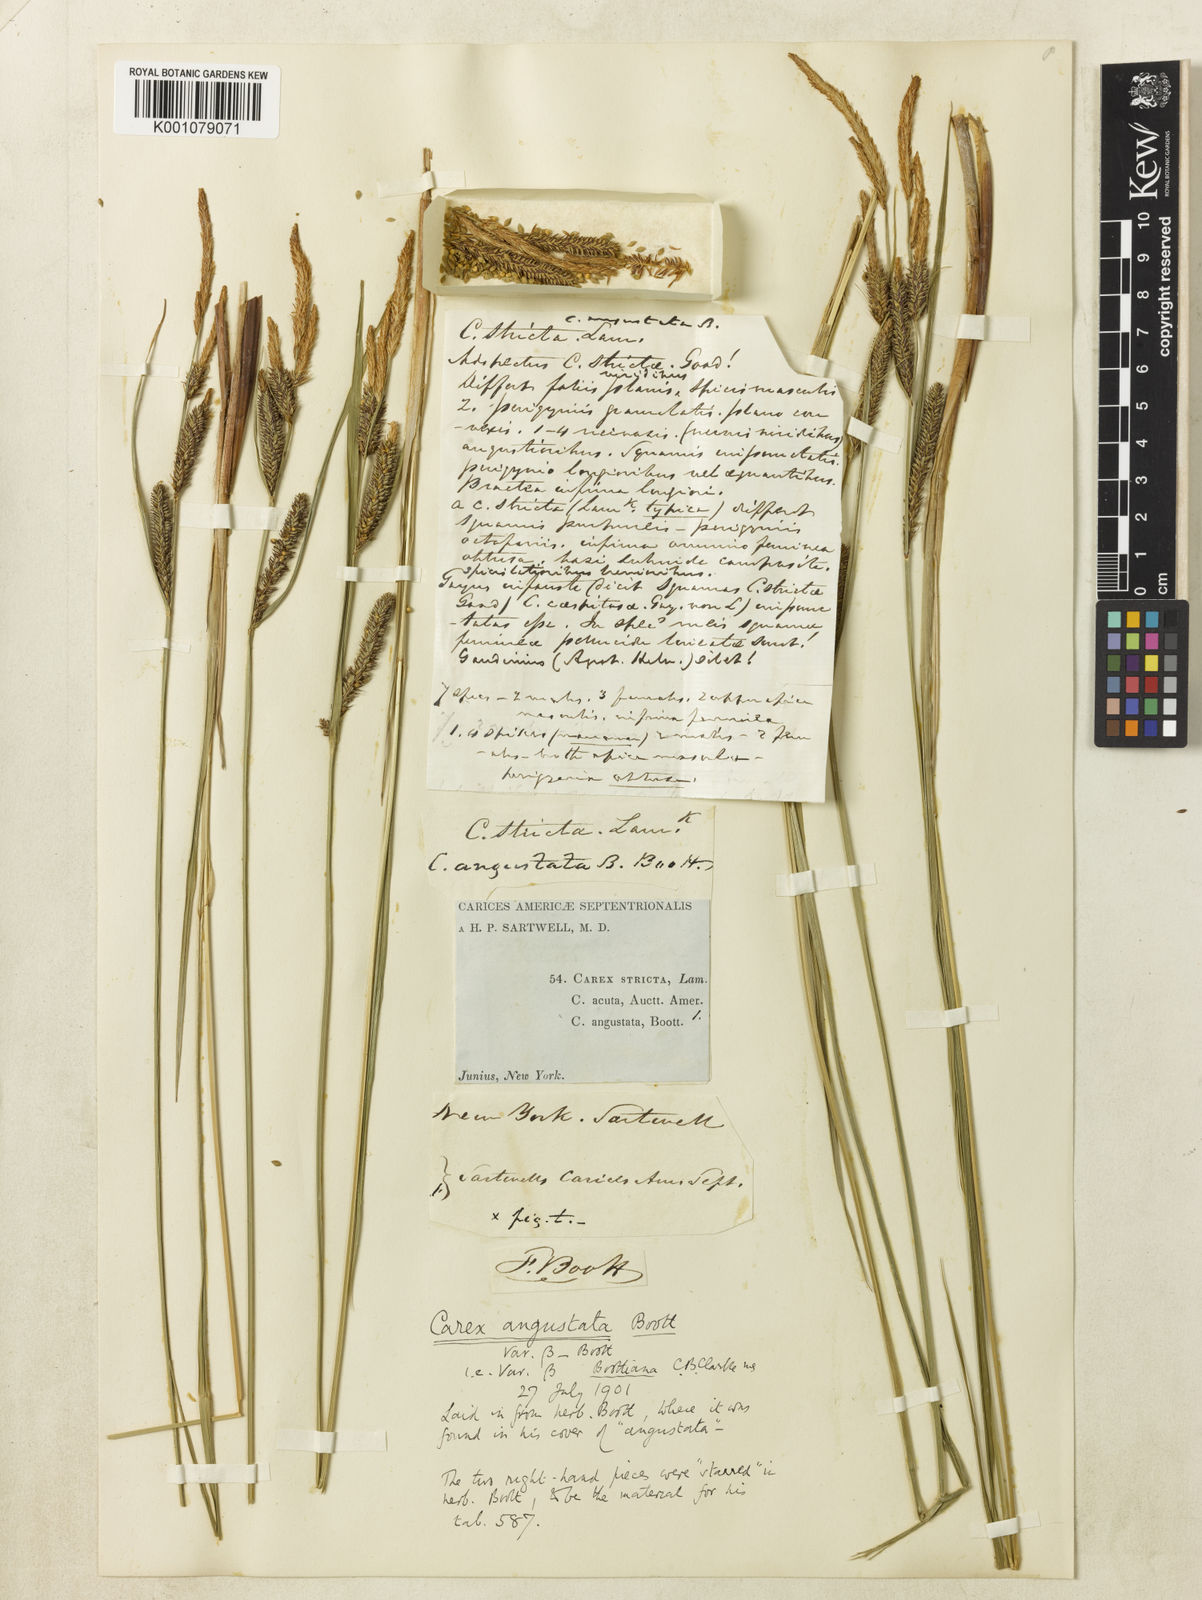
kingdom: Plantae
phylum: Tracheophyta
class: Liliopsida
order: Poales
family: Cyperaceae
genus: Carex
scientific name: Carex
